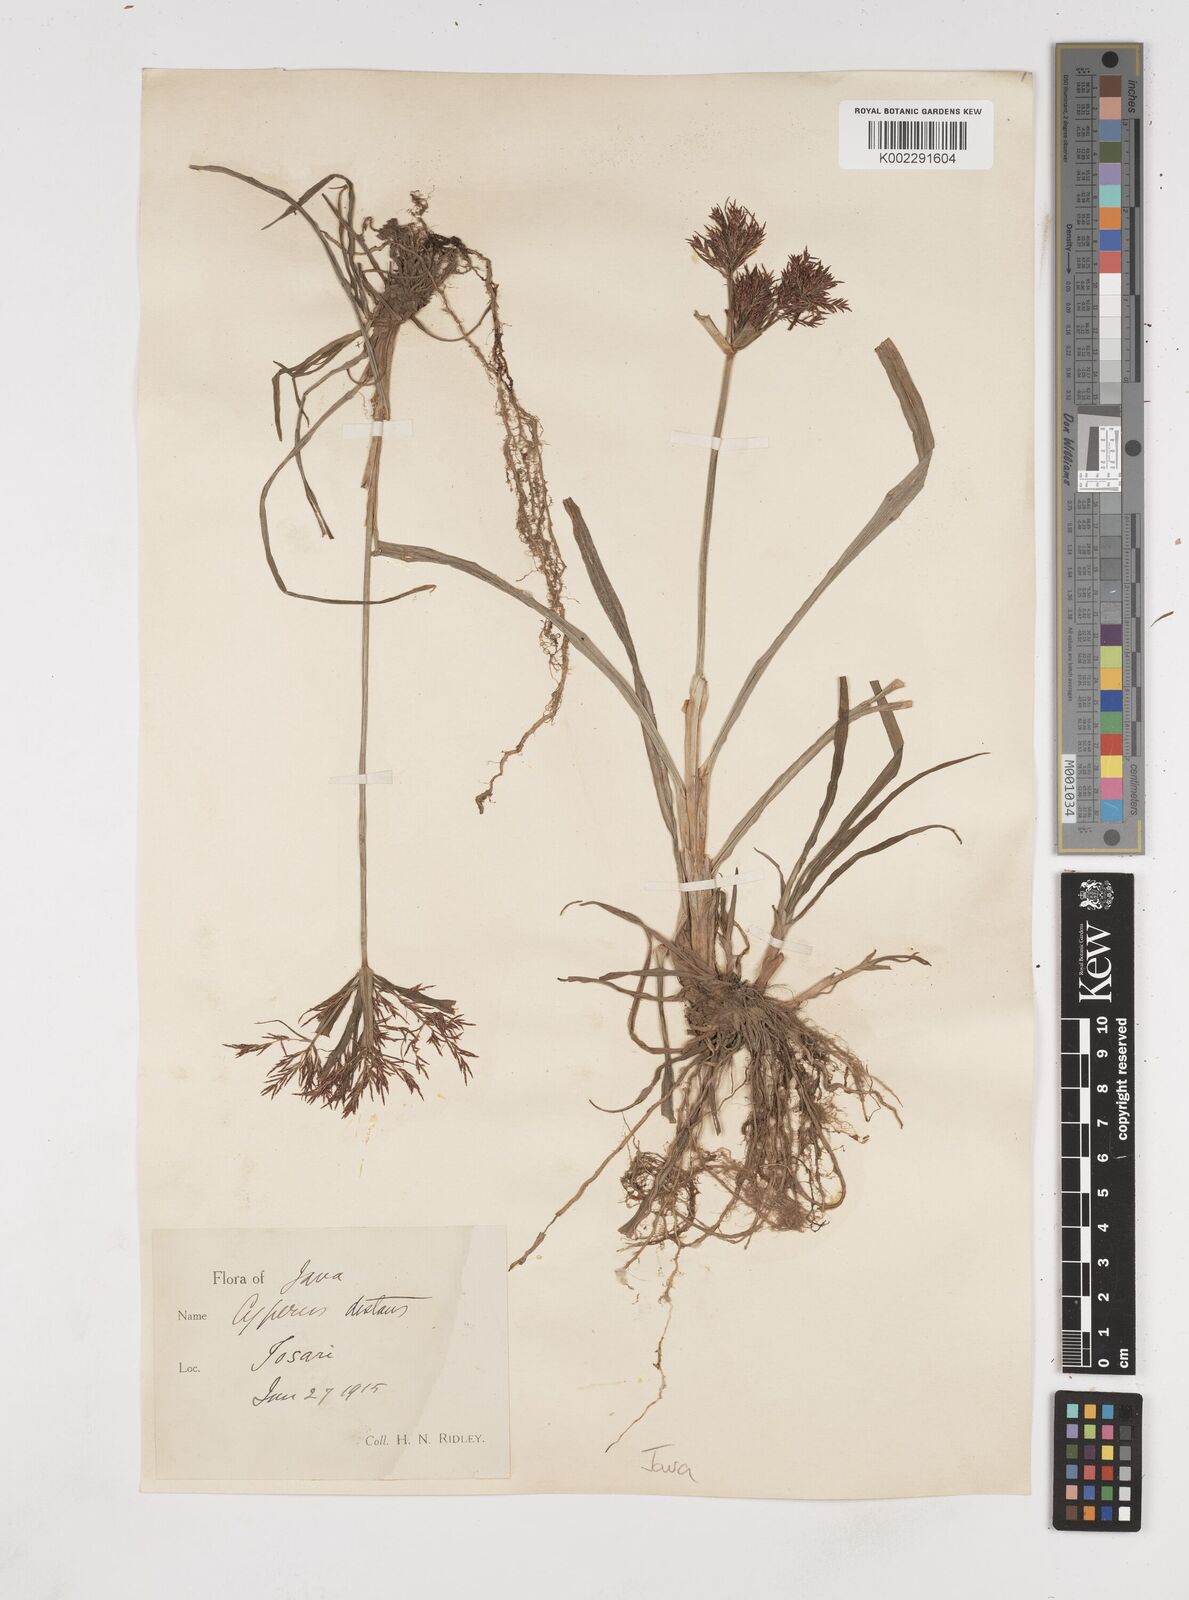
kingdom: Plantae
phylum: Tracheophyta
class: Liliopsida
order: Poales
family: Cyperaceae
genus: Cyperus
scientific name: Cyperus distans
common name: Slender cyperus
